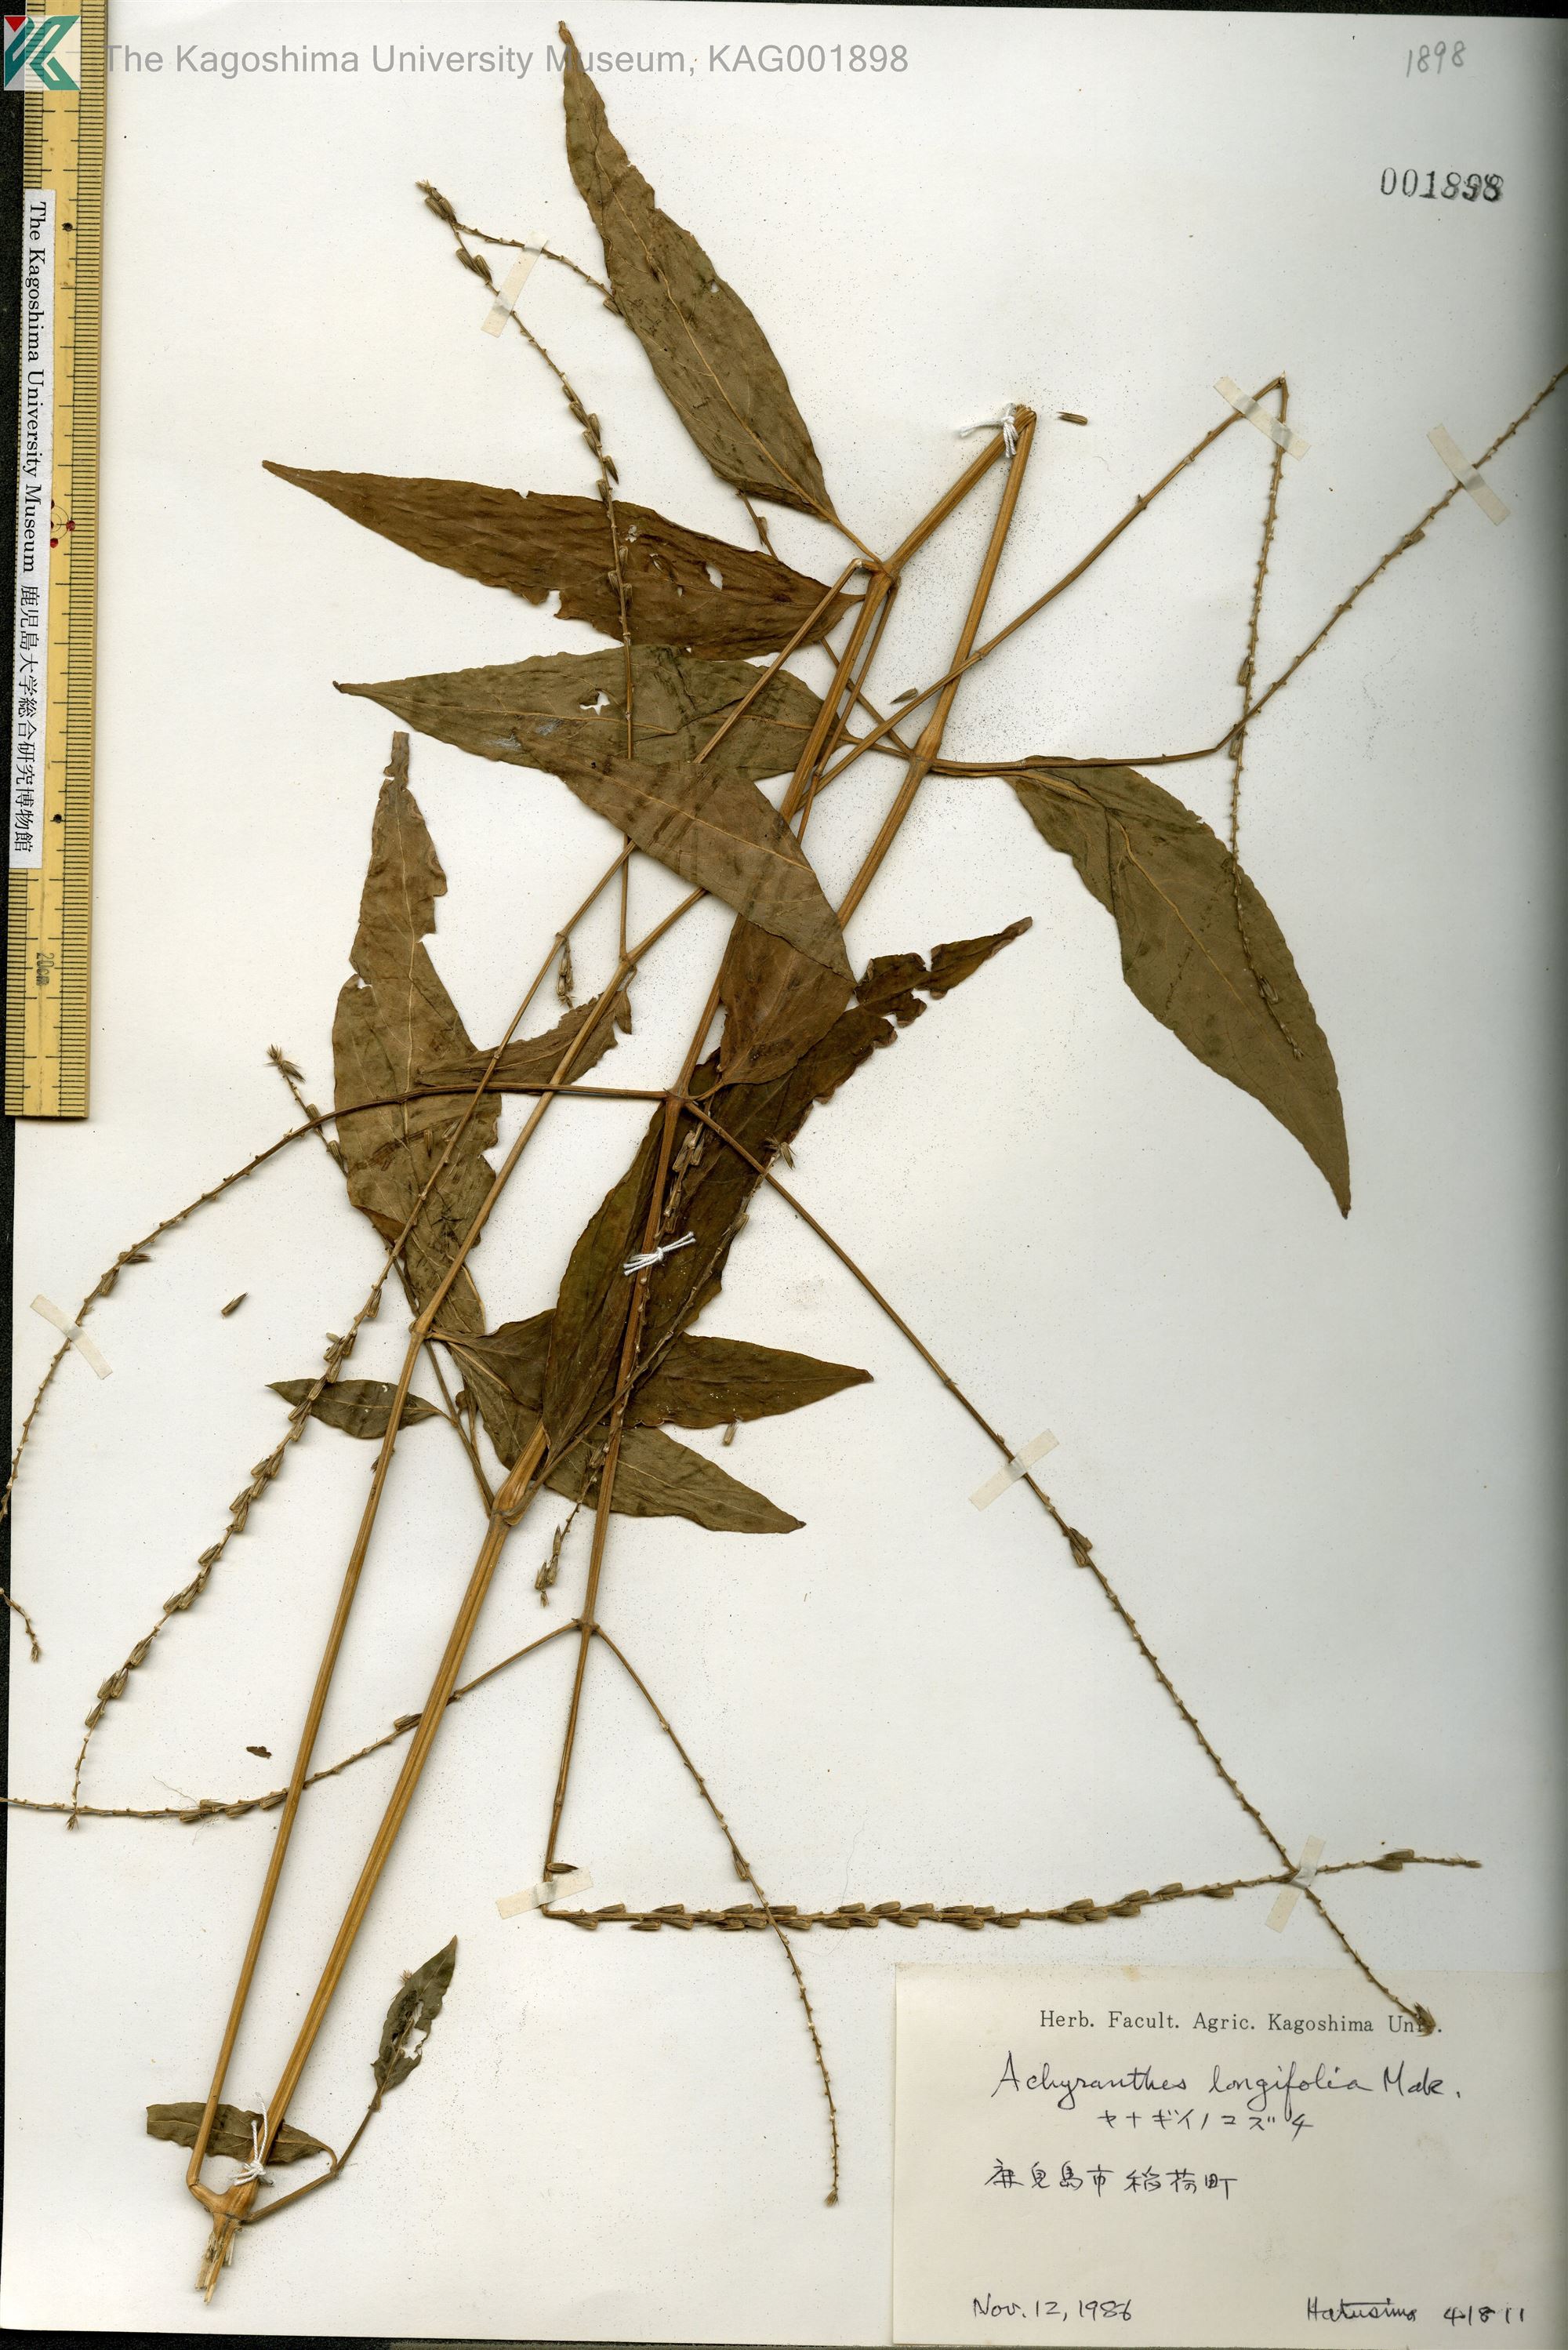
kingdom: Plantae
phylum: Tracheophyta
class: Magnoliopsida
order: Caryophyllales
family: Amaranthaceae
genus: Achyranthes
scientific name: Achyranthes bidentata
